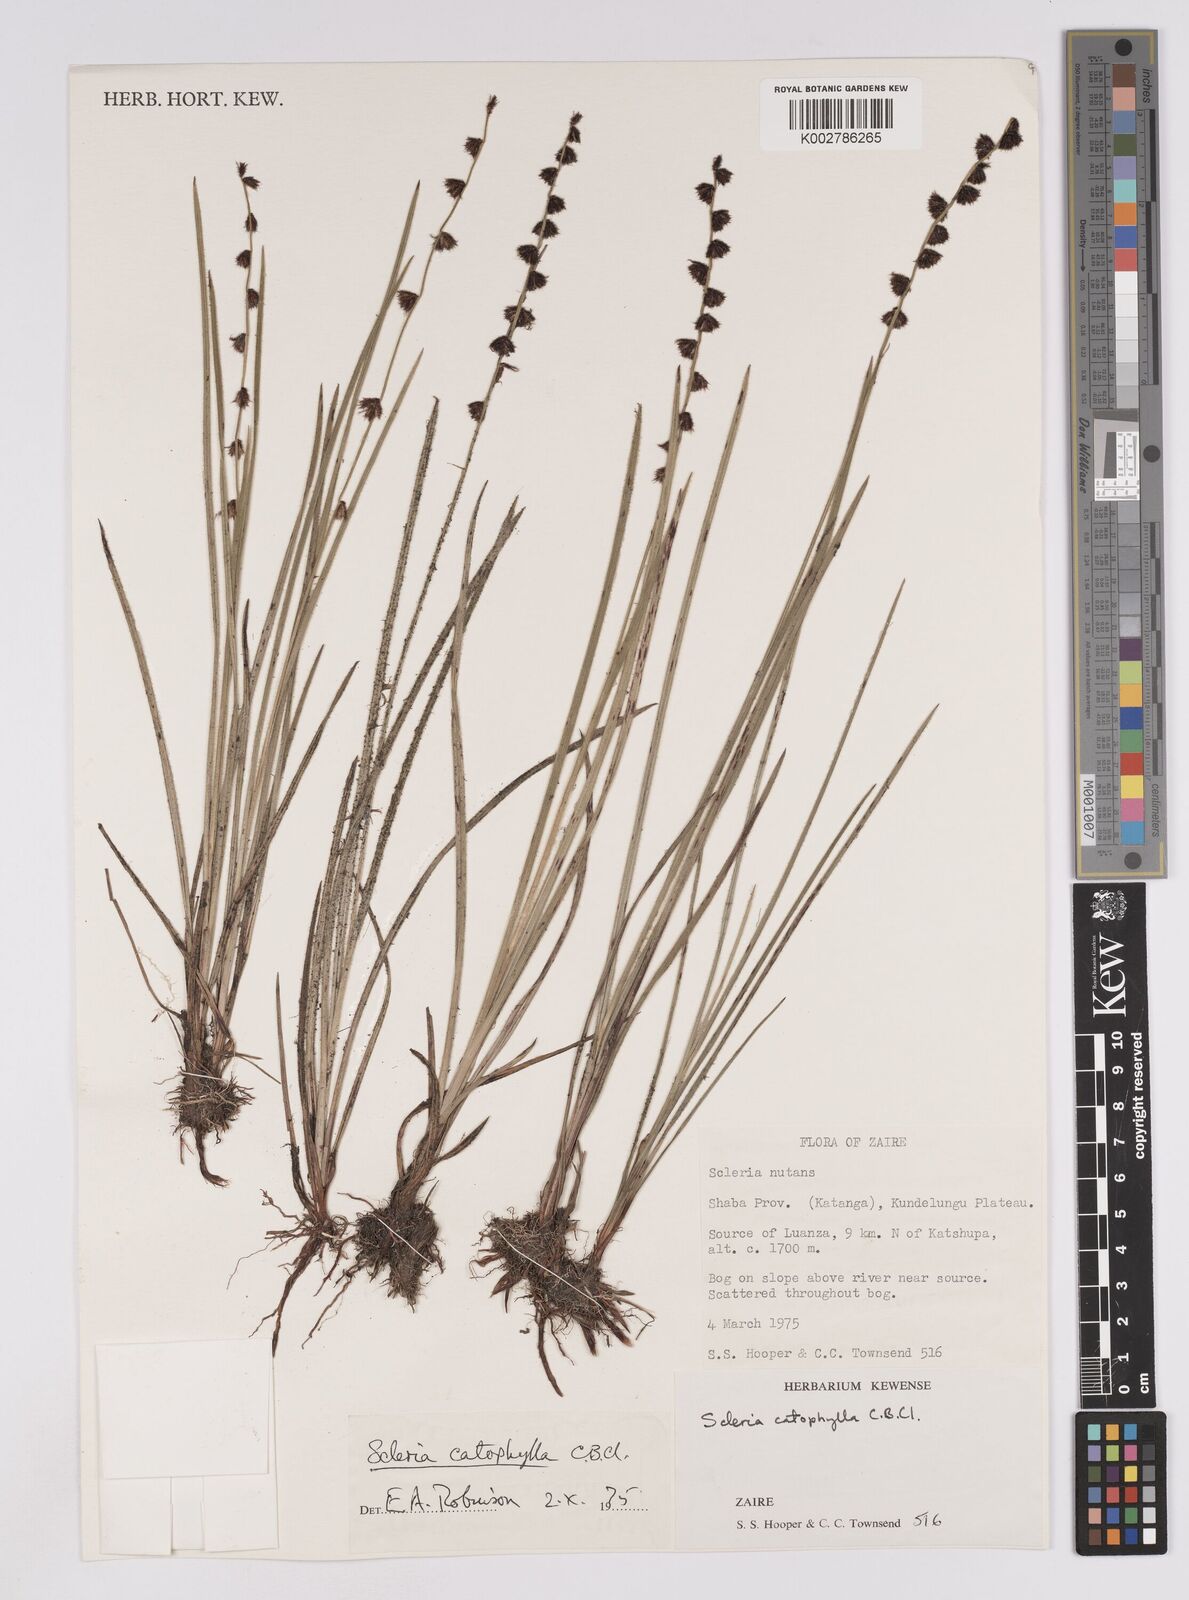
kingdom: Plantae
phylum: Tracheophyta
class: Liliopsida
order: Poales
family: Cyperaceae
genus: Scleria
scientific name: Scleria catophylla
